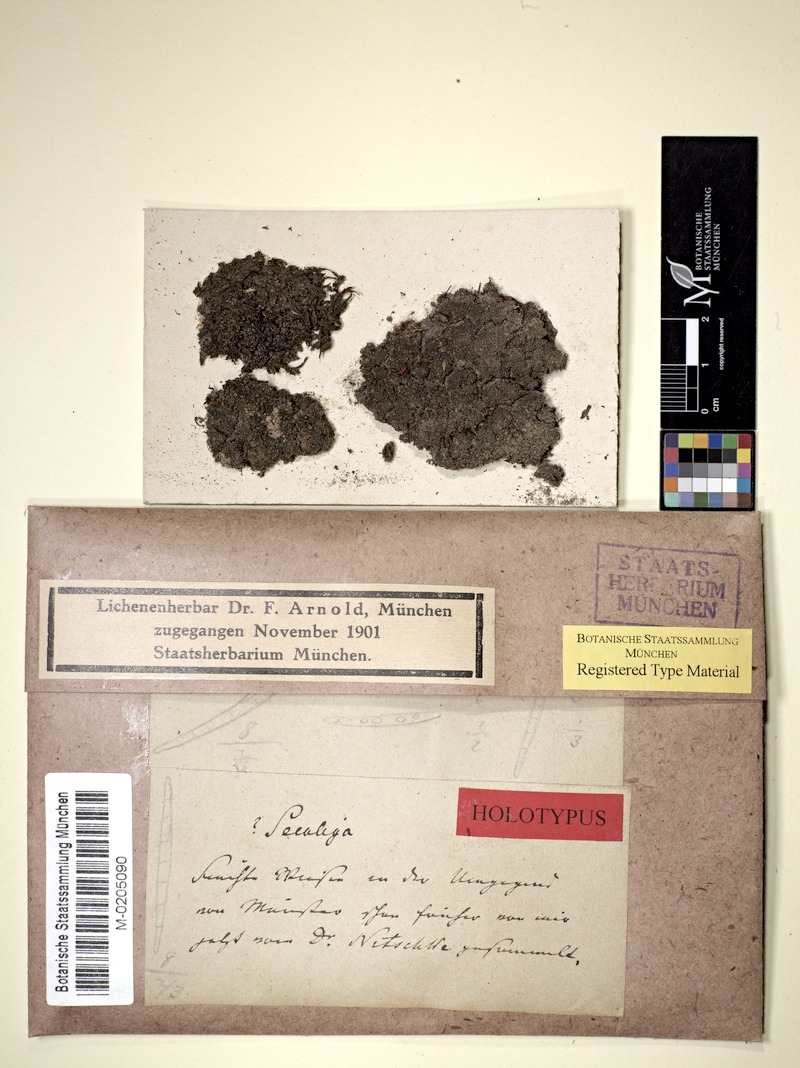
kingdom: Fungi
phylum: Ascomycota
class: Lecanoromycetes
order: Ostropales
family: Stictidaceae
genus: Cryptodiscus
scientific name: Cryptodiscus gloeocapsa
